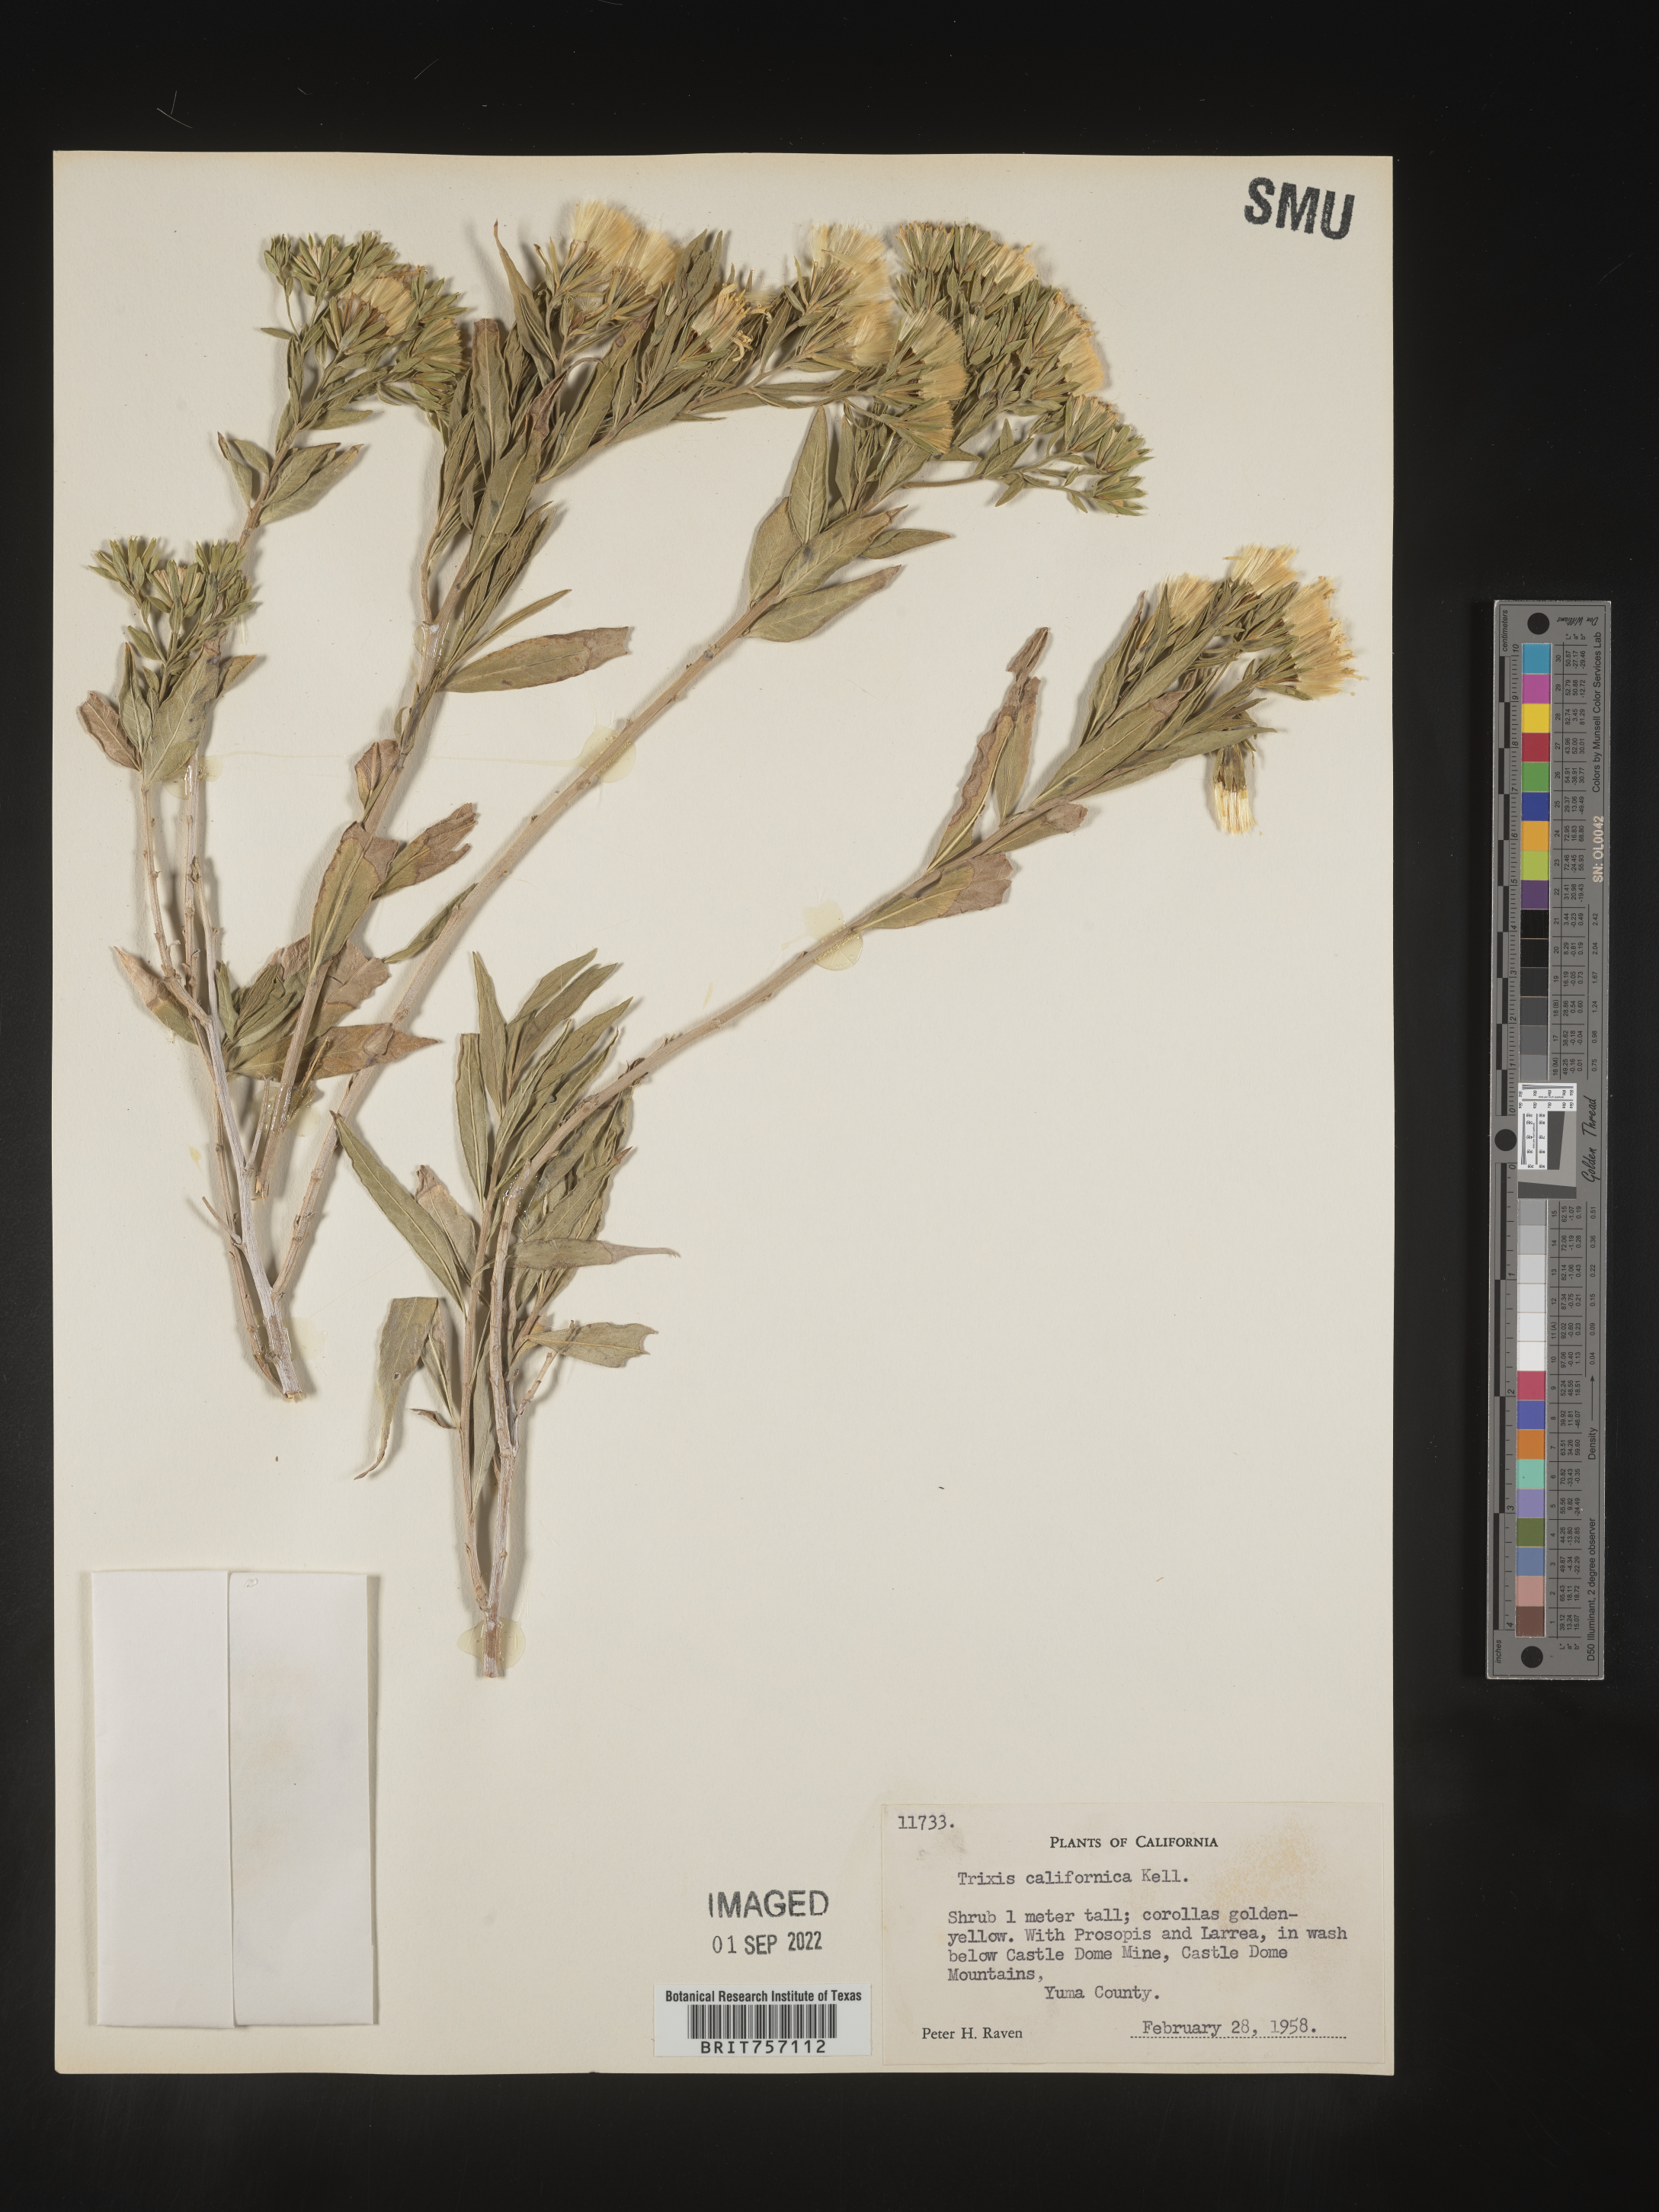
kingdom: Plantae
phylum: Tracheophyta
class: Magnoliopsida
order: Asterales
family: Asteraceae
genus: Trixis
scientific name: Trixis
